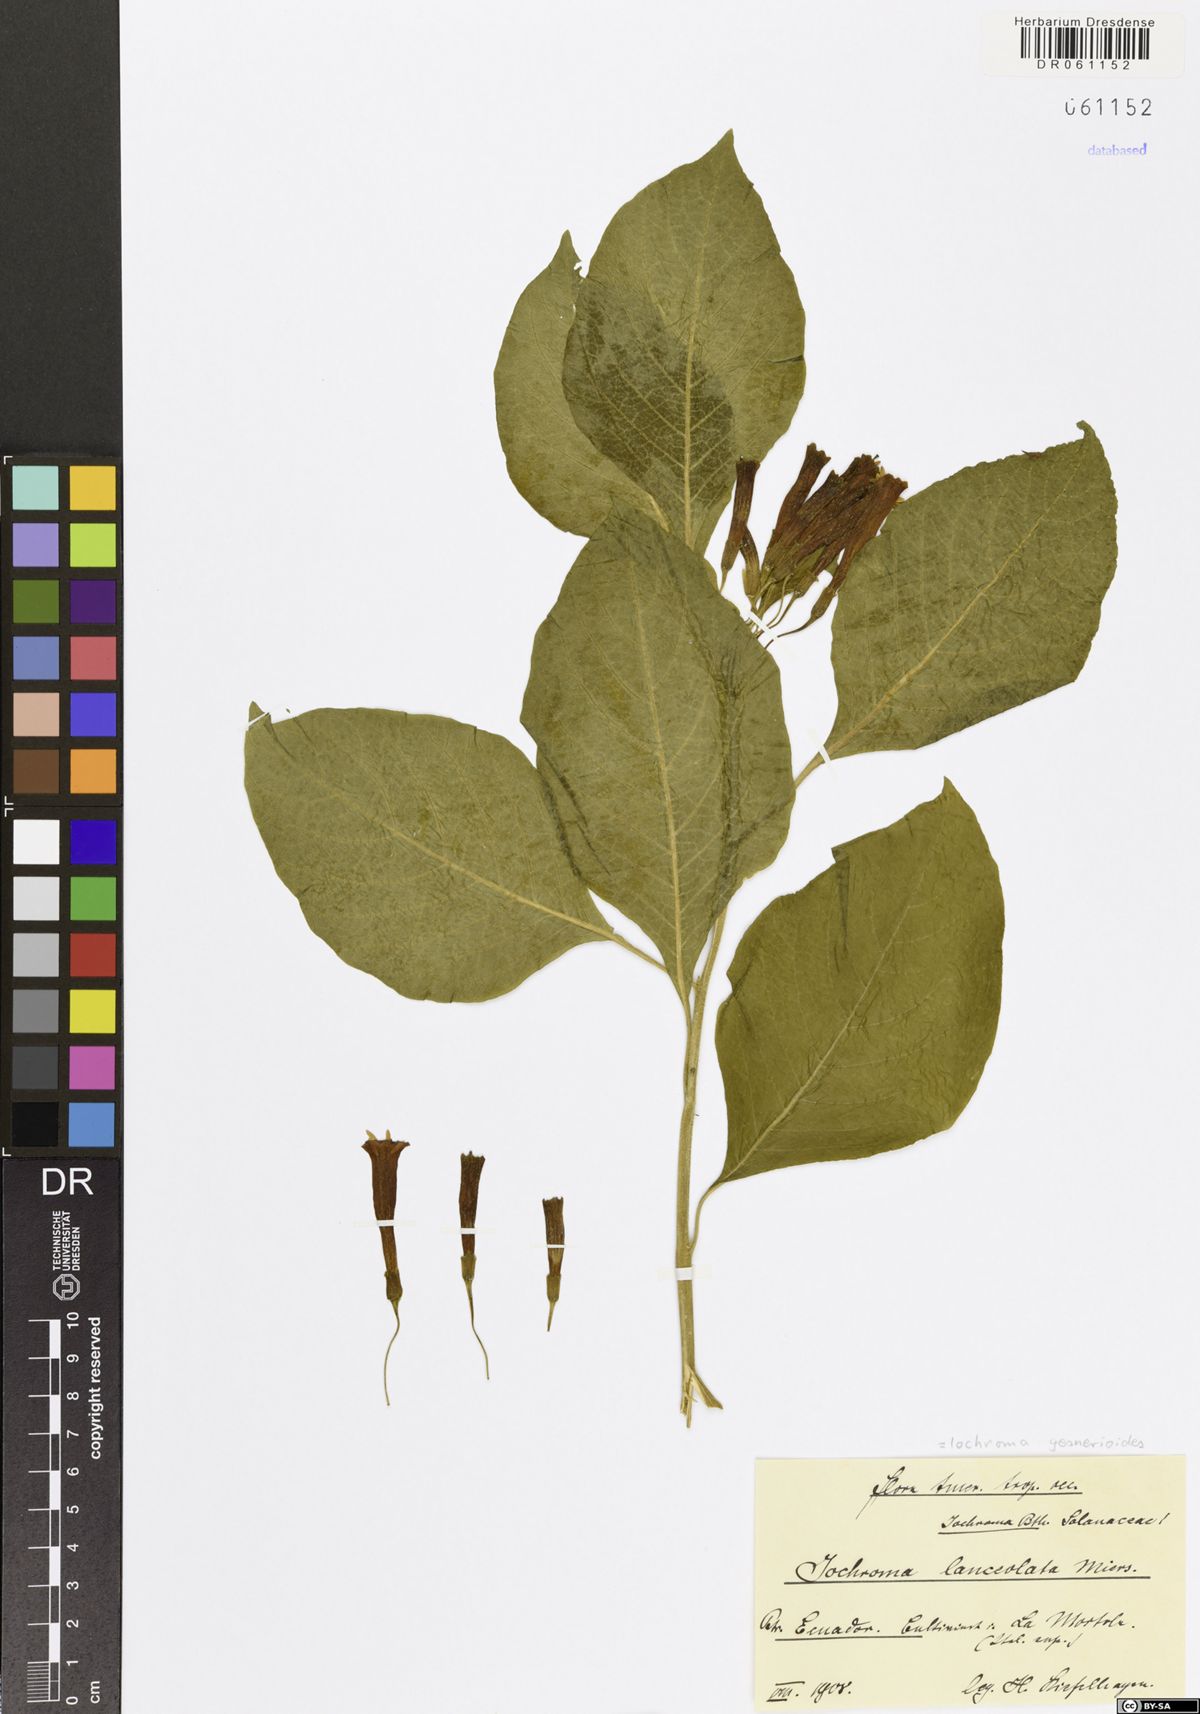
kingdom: Plantae
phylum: Tracheophyta
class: Magnoliopsida
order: Solanales
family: Solanaceae
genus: Iochroma
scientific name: Iochroma gesnerioides
